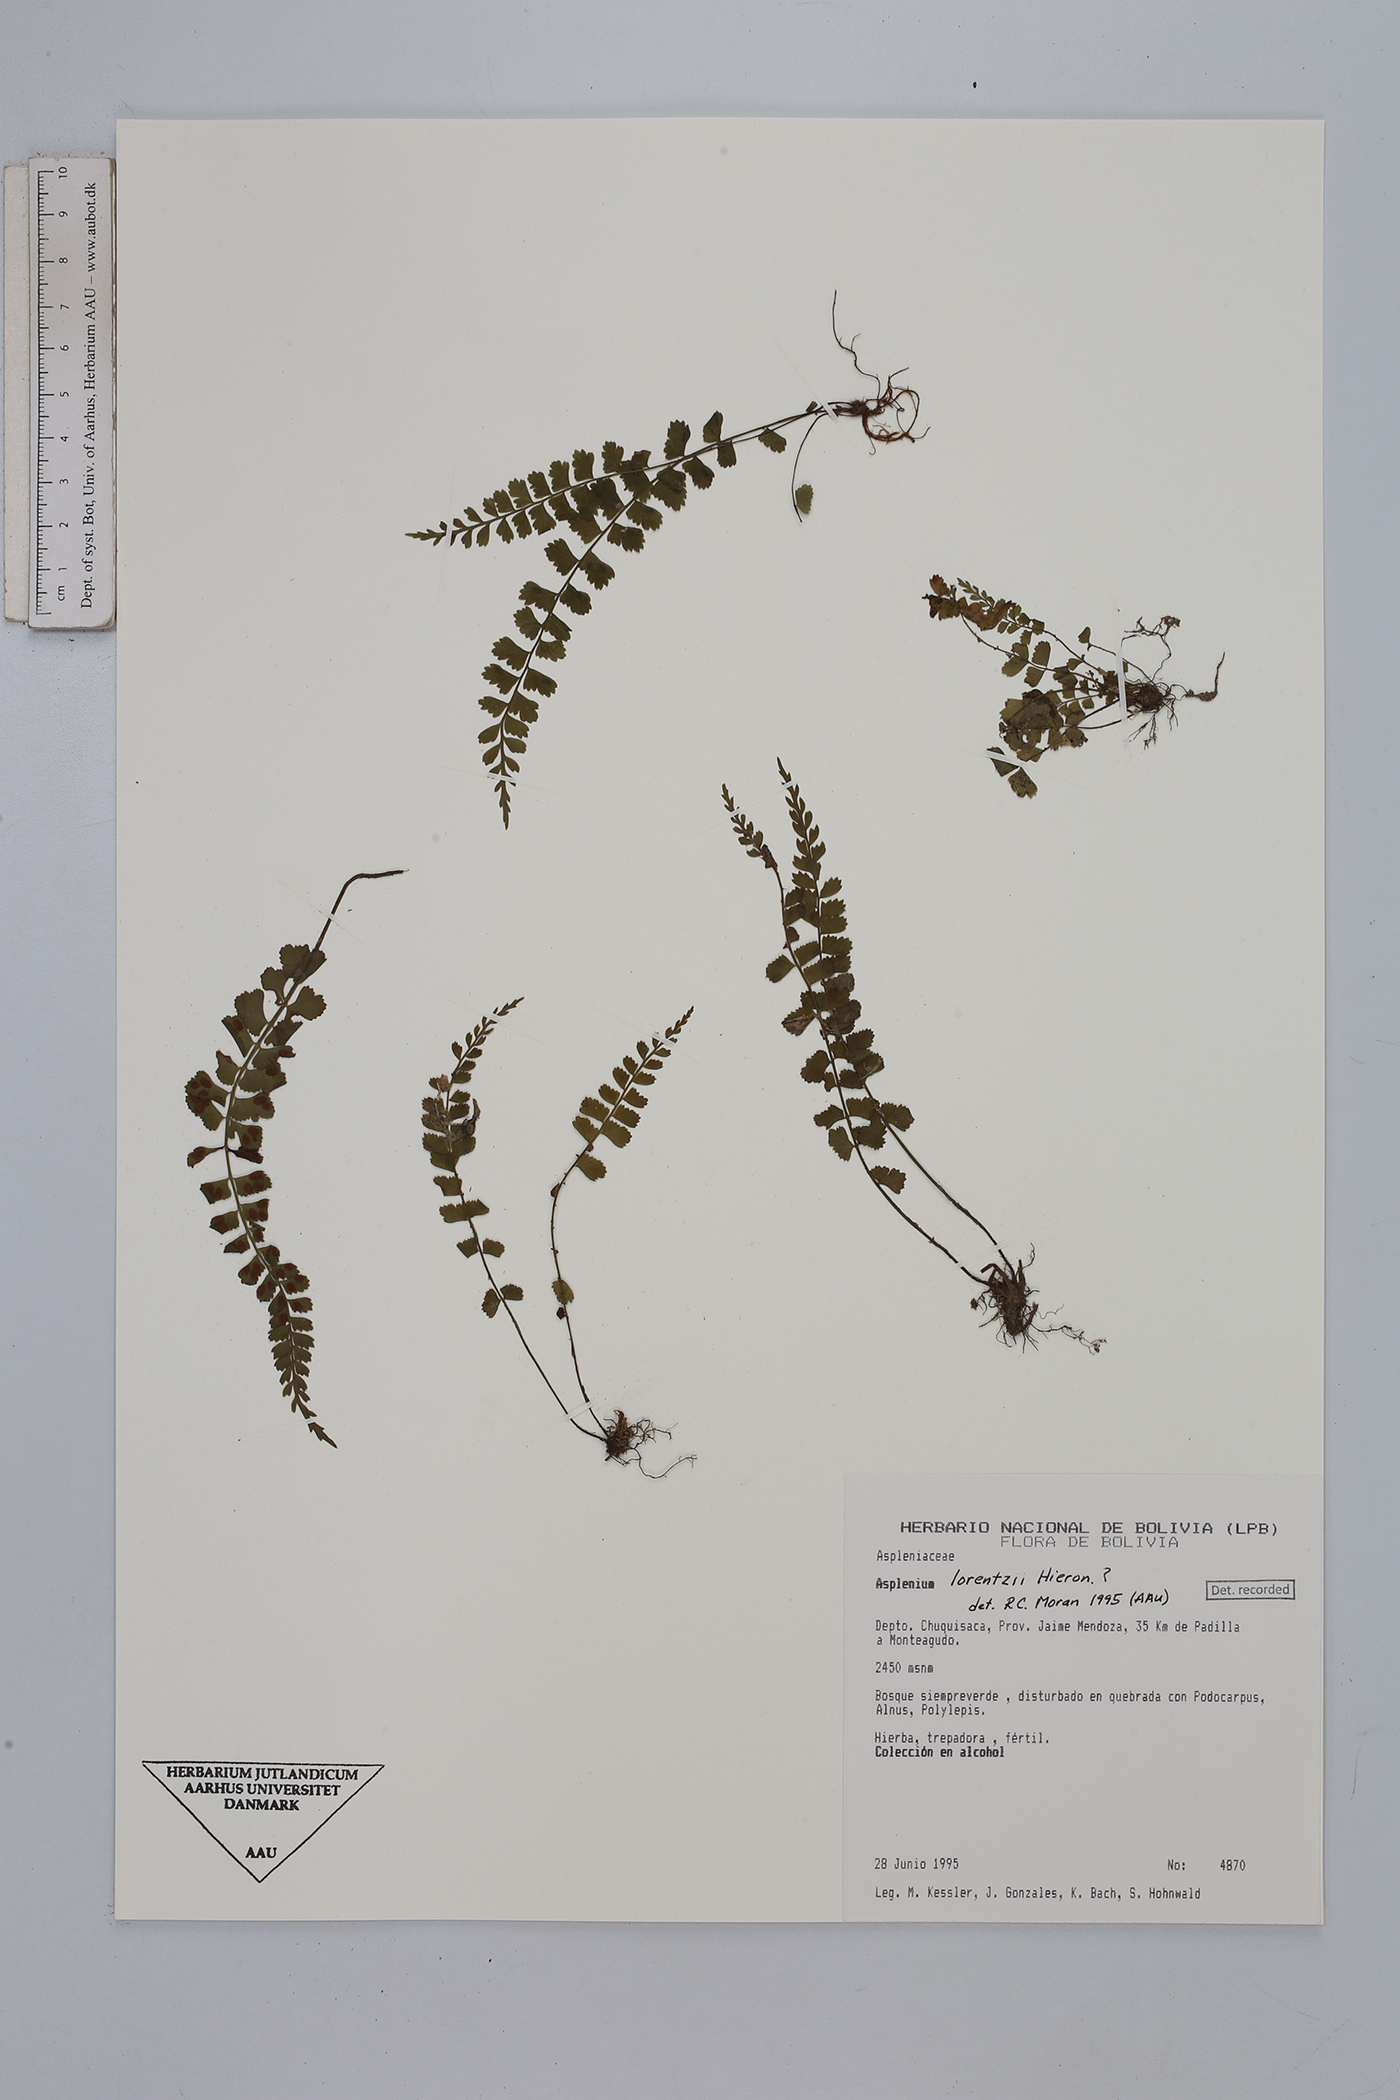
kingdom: Plantae
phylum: Tracheophyta
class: Polypodiopsida
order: Polypodiales
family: Aspleniaceae
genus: Asplenium
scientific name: Asplenium lorentzii
